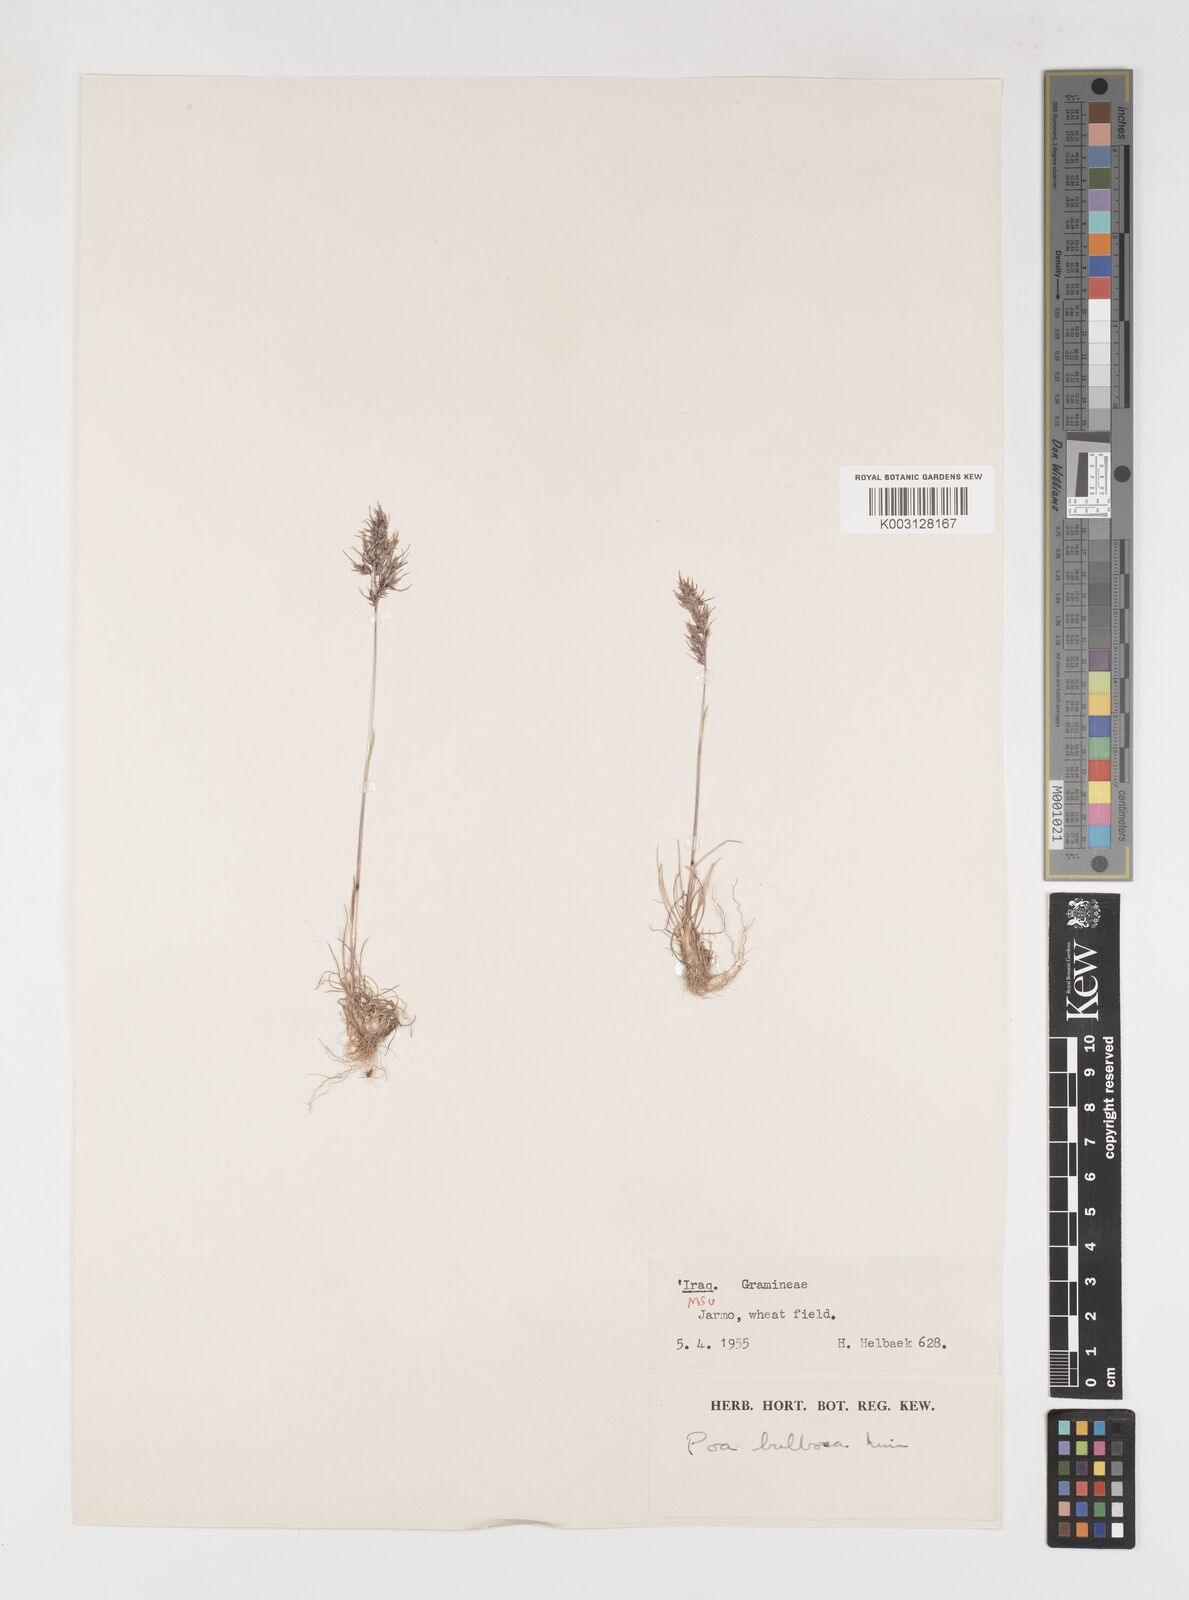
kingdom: Plantae
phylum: Tracheophyta
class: Liliopsida
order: Poales
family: Poaceae
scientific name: Poaceae
